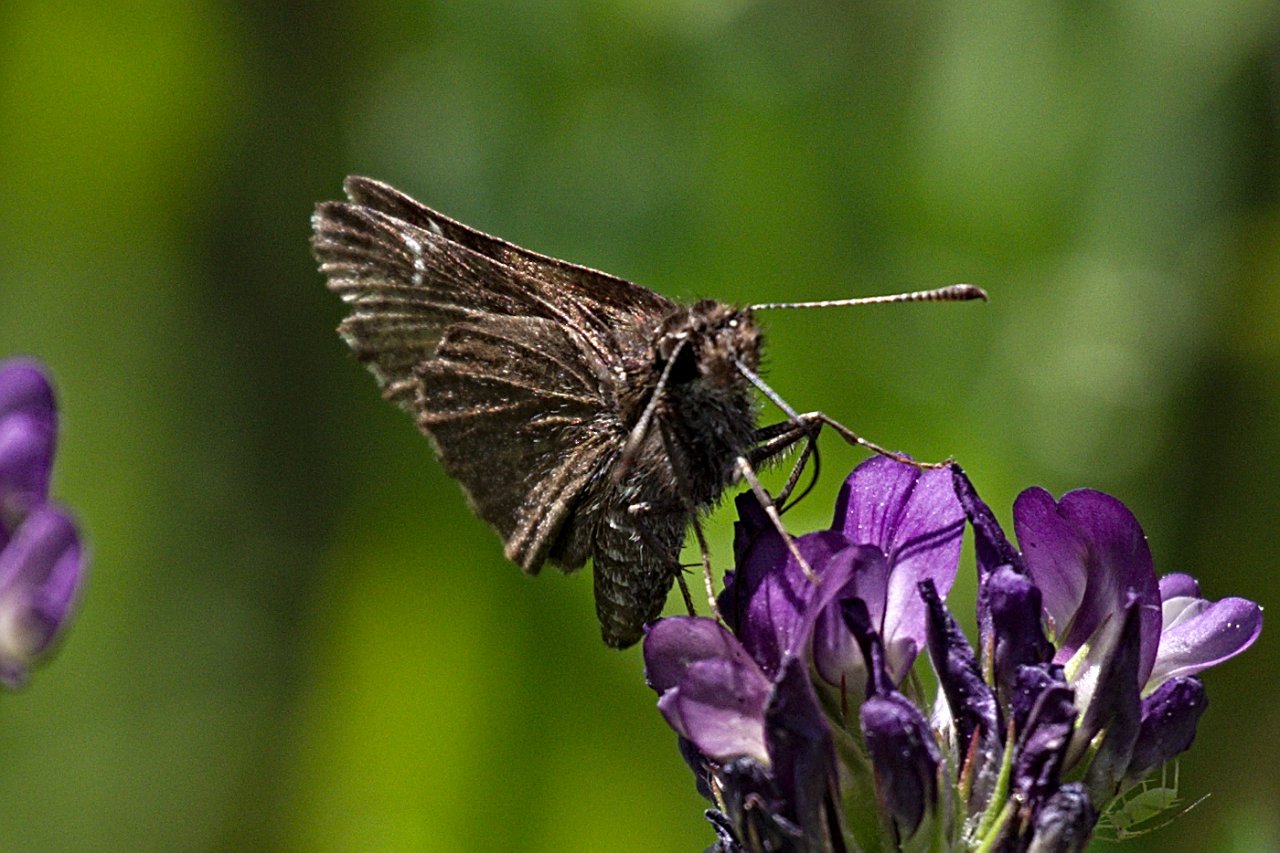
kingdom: Animalia
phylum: Arthropoda
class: Insecta
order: Lepidoptera
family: Hesperiidae
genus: Euphyes
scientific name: Euphyes vestris
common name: Dun Skipper
